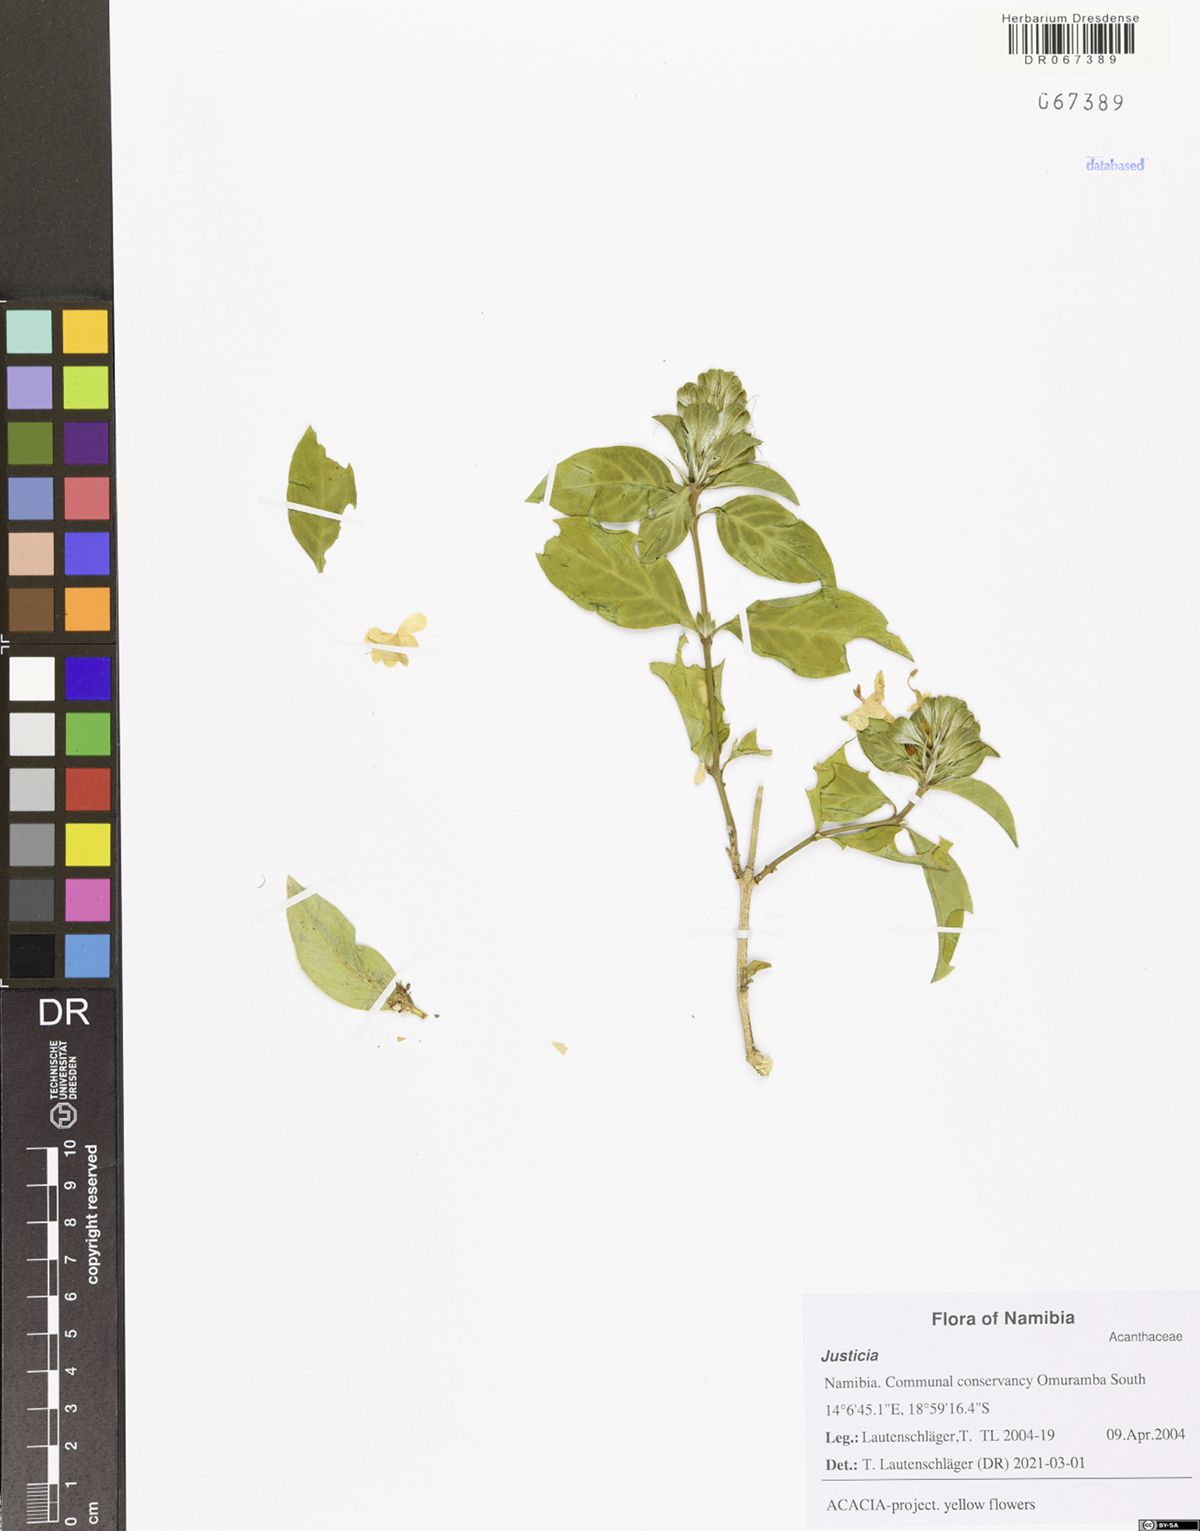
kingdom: Plantae
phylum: Tracheophyta
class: Magnoliopsida
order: Lamiales
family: Acanthaceae
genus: Justicia
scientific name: Justicia
